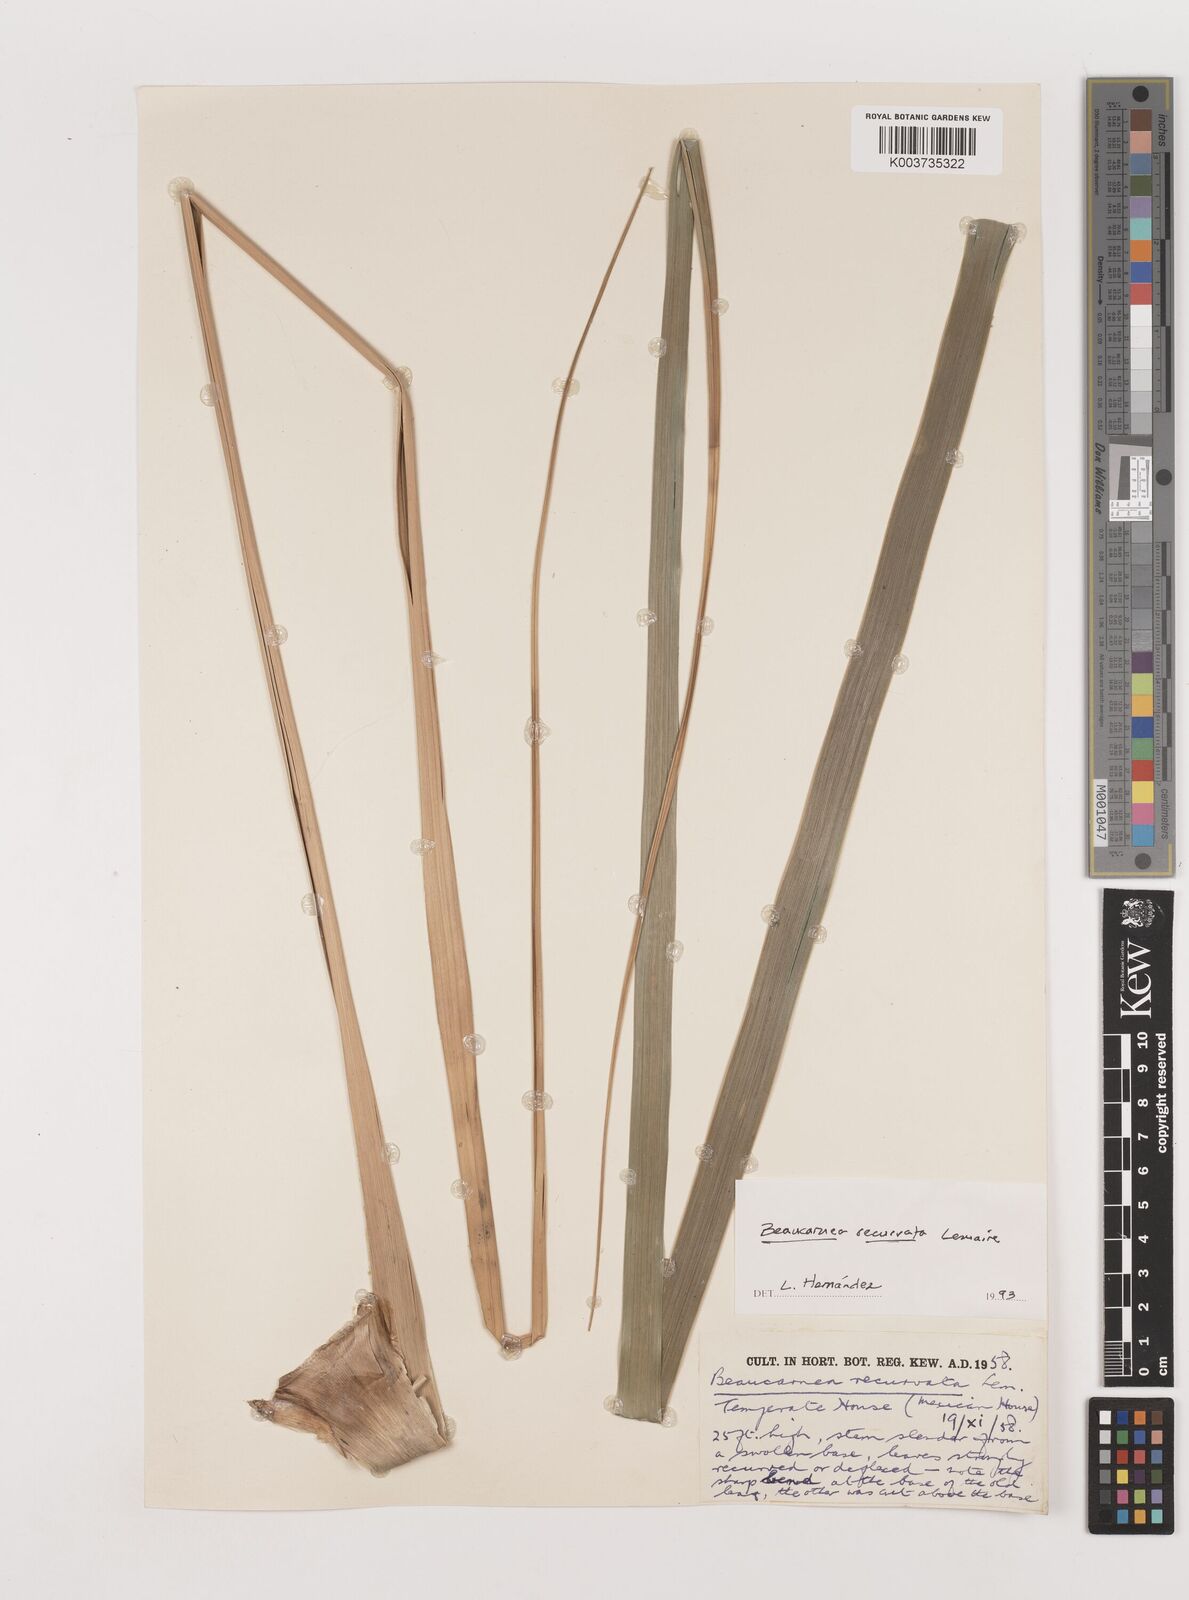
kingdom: Plantae
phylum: Tracheophyta
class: Liliopsida
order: Asparagales
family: Asparagaceae
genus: Beaucarnea
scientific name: Beaucarnea recurvata
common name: Stripy  ponytail
